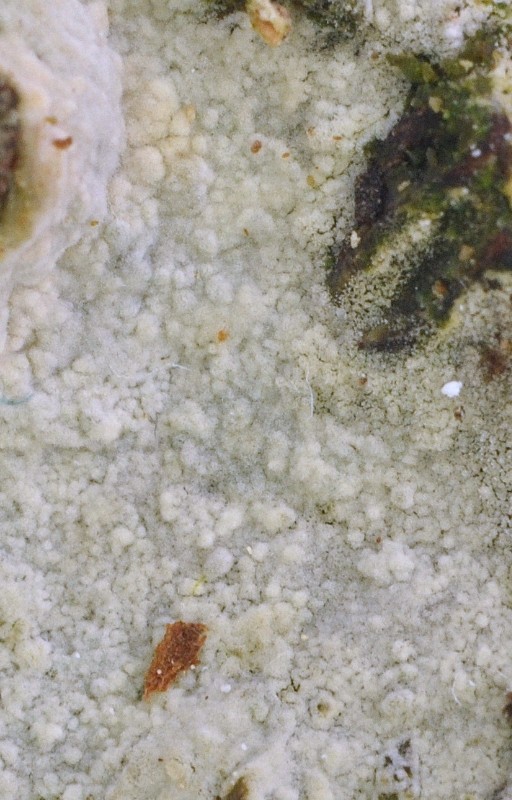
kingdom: Fungi
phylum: Basidiomycota
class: Agaricomycetes
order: Hymenochaetales
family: Hyphodontiaceae
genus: Hyphodontia
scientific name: Hyphodontia alutaria
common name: flaskerenser-nålehinde
